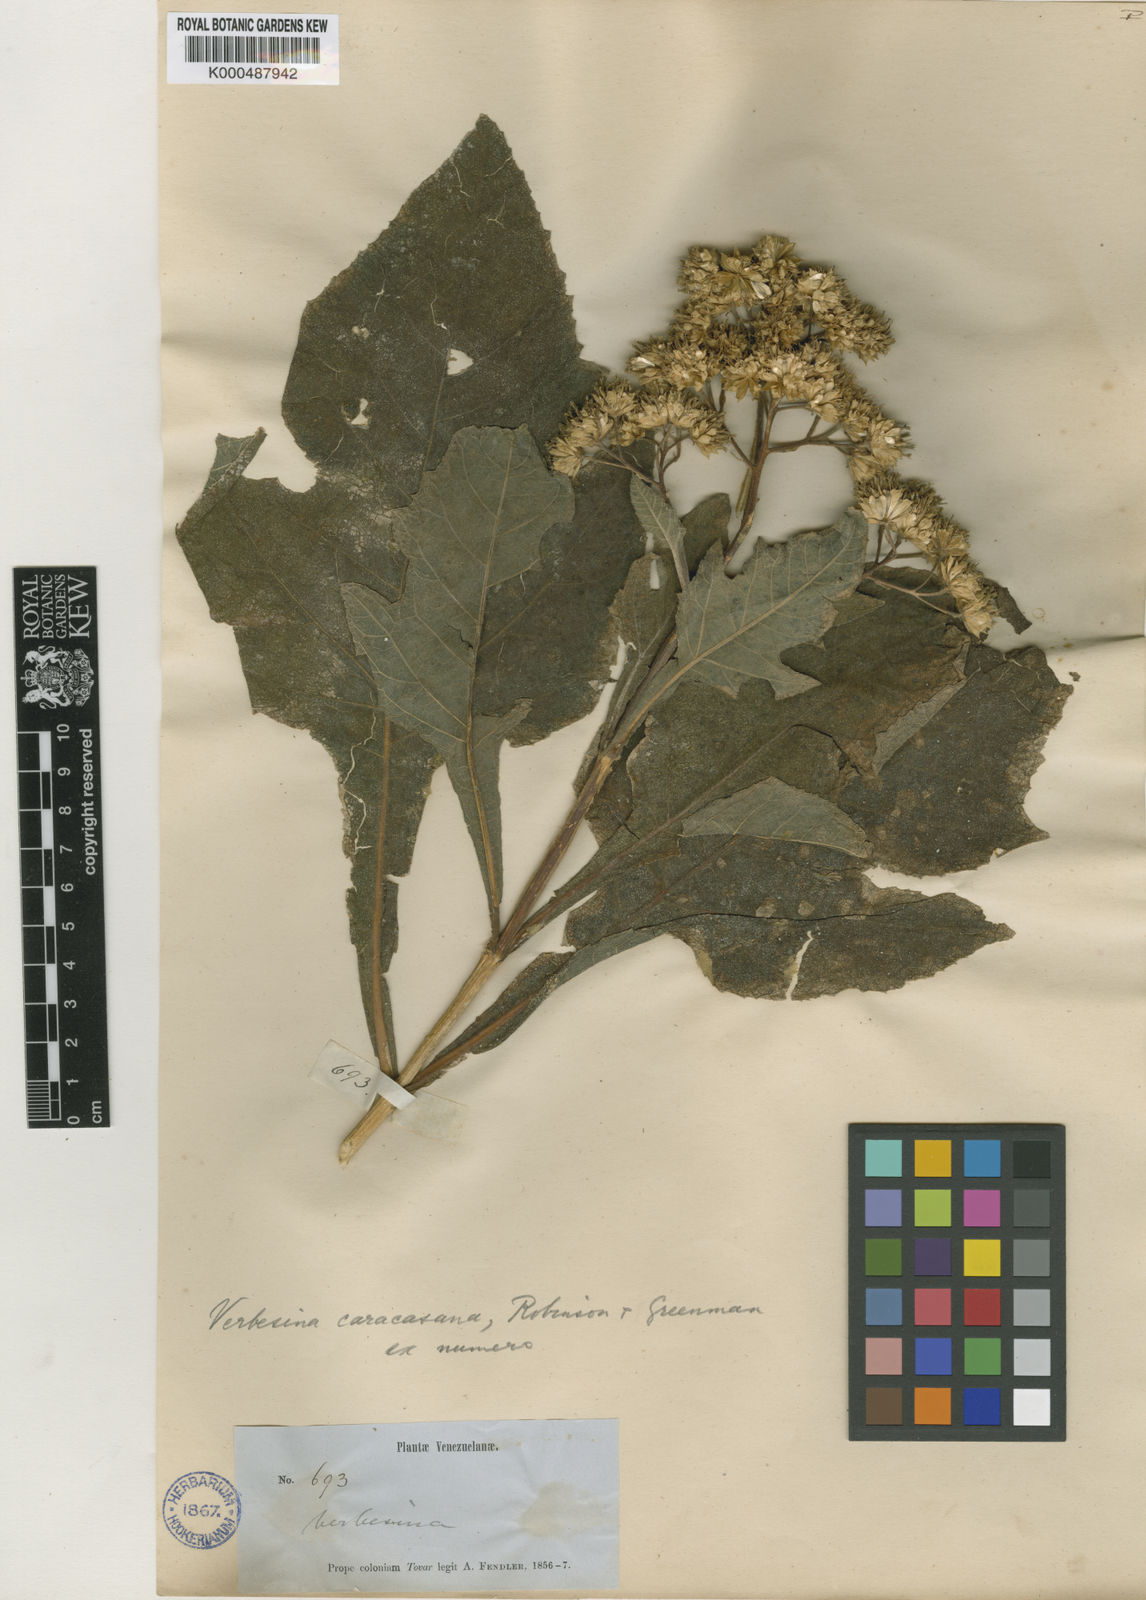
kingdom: Plantae
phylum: Tracheophyta
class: Magnoliopsida
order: Asterales
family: Asteraceae
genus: Verbesina
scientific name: Verbesina caracasana
